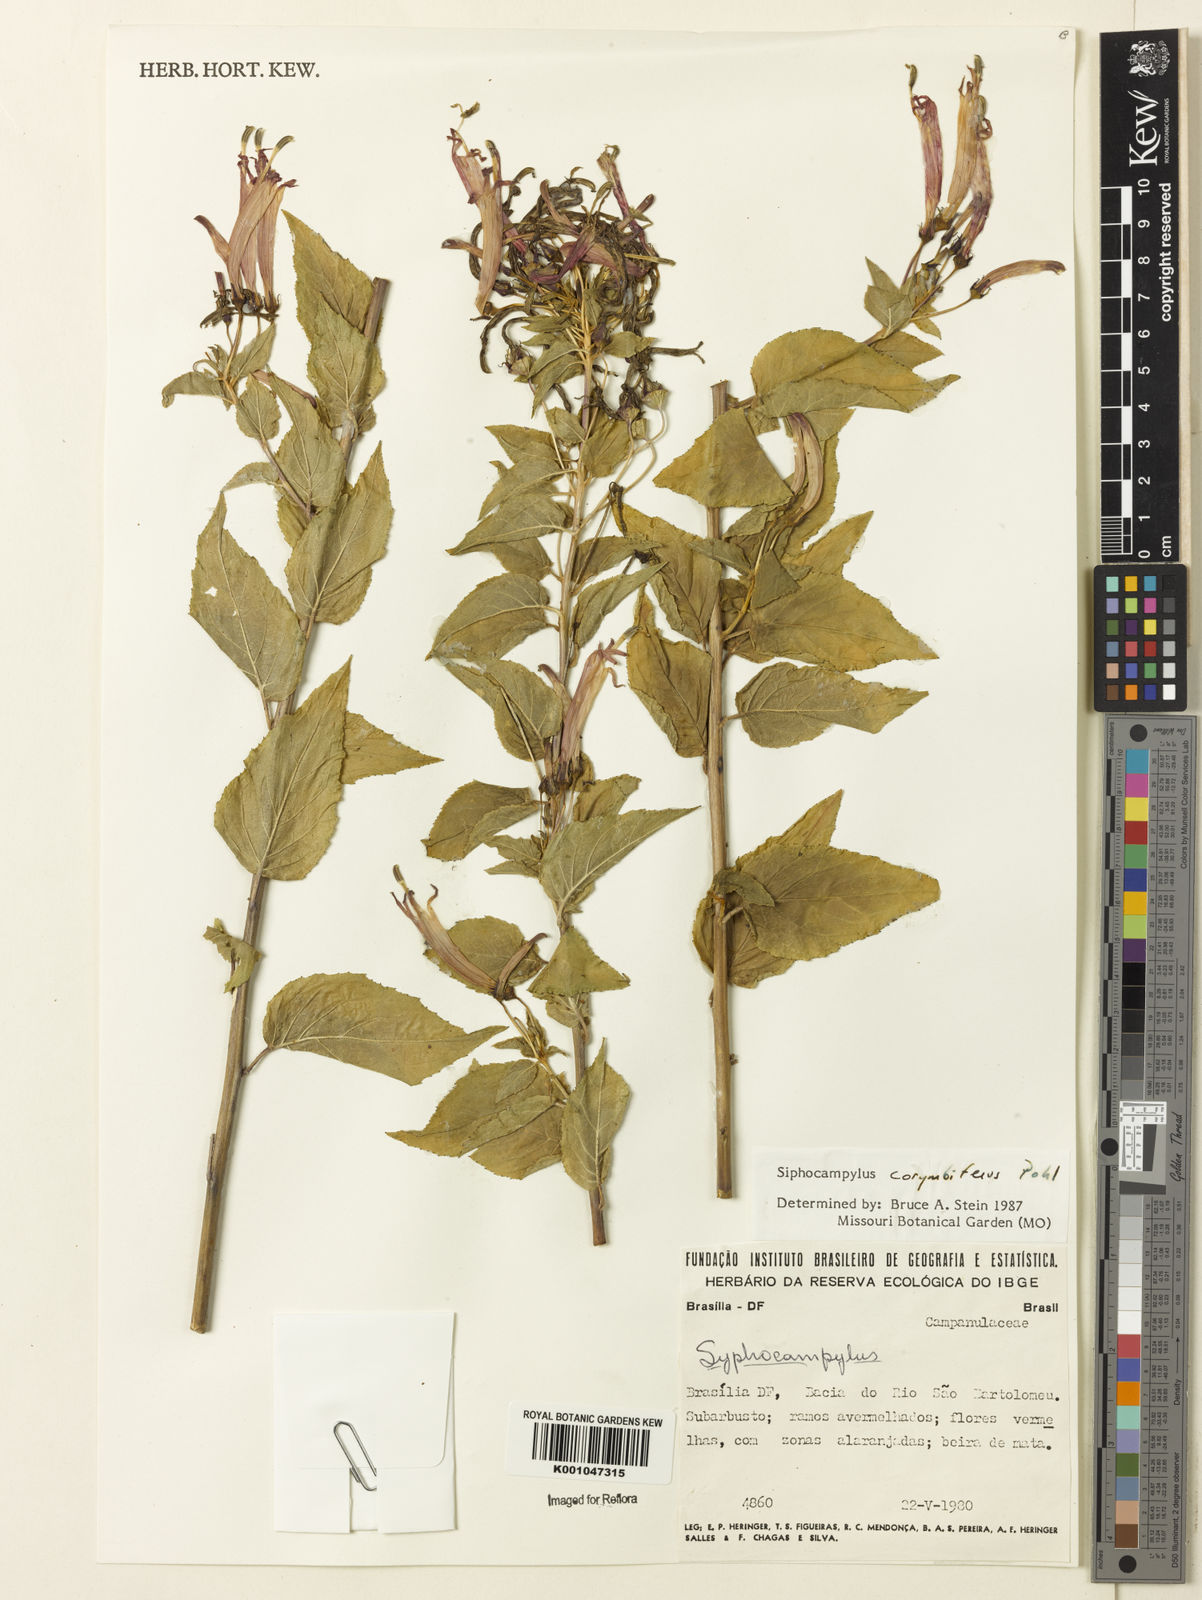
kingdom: Plantae
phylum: Tracheophyta
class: Magnoliopsida
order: Asterales
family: Campanulaceae
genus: Siphocampylus
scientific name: Siphocampylus corymbifer
